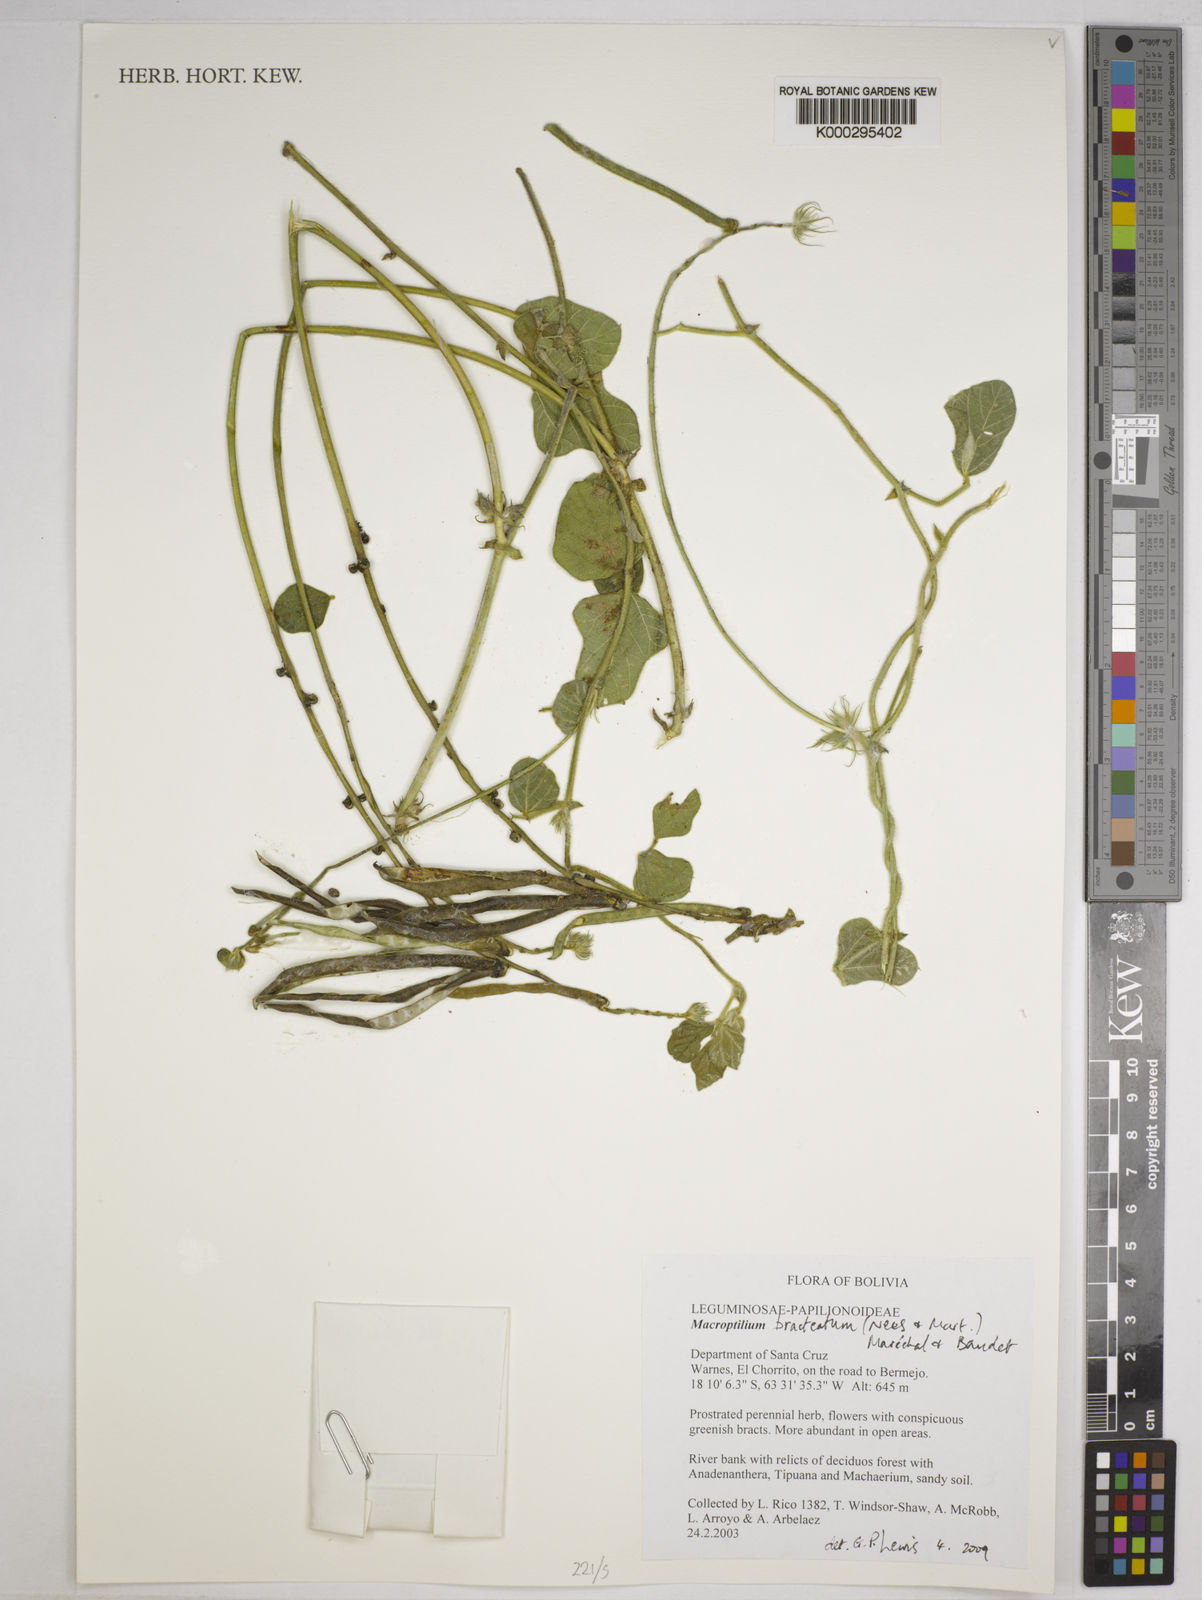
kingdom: Plantae
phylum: Tracheophyta
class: Magnoliopsida
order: Fabales
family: Fabaceae
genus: Macroptilium
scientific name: Macroptilium bracteatum
